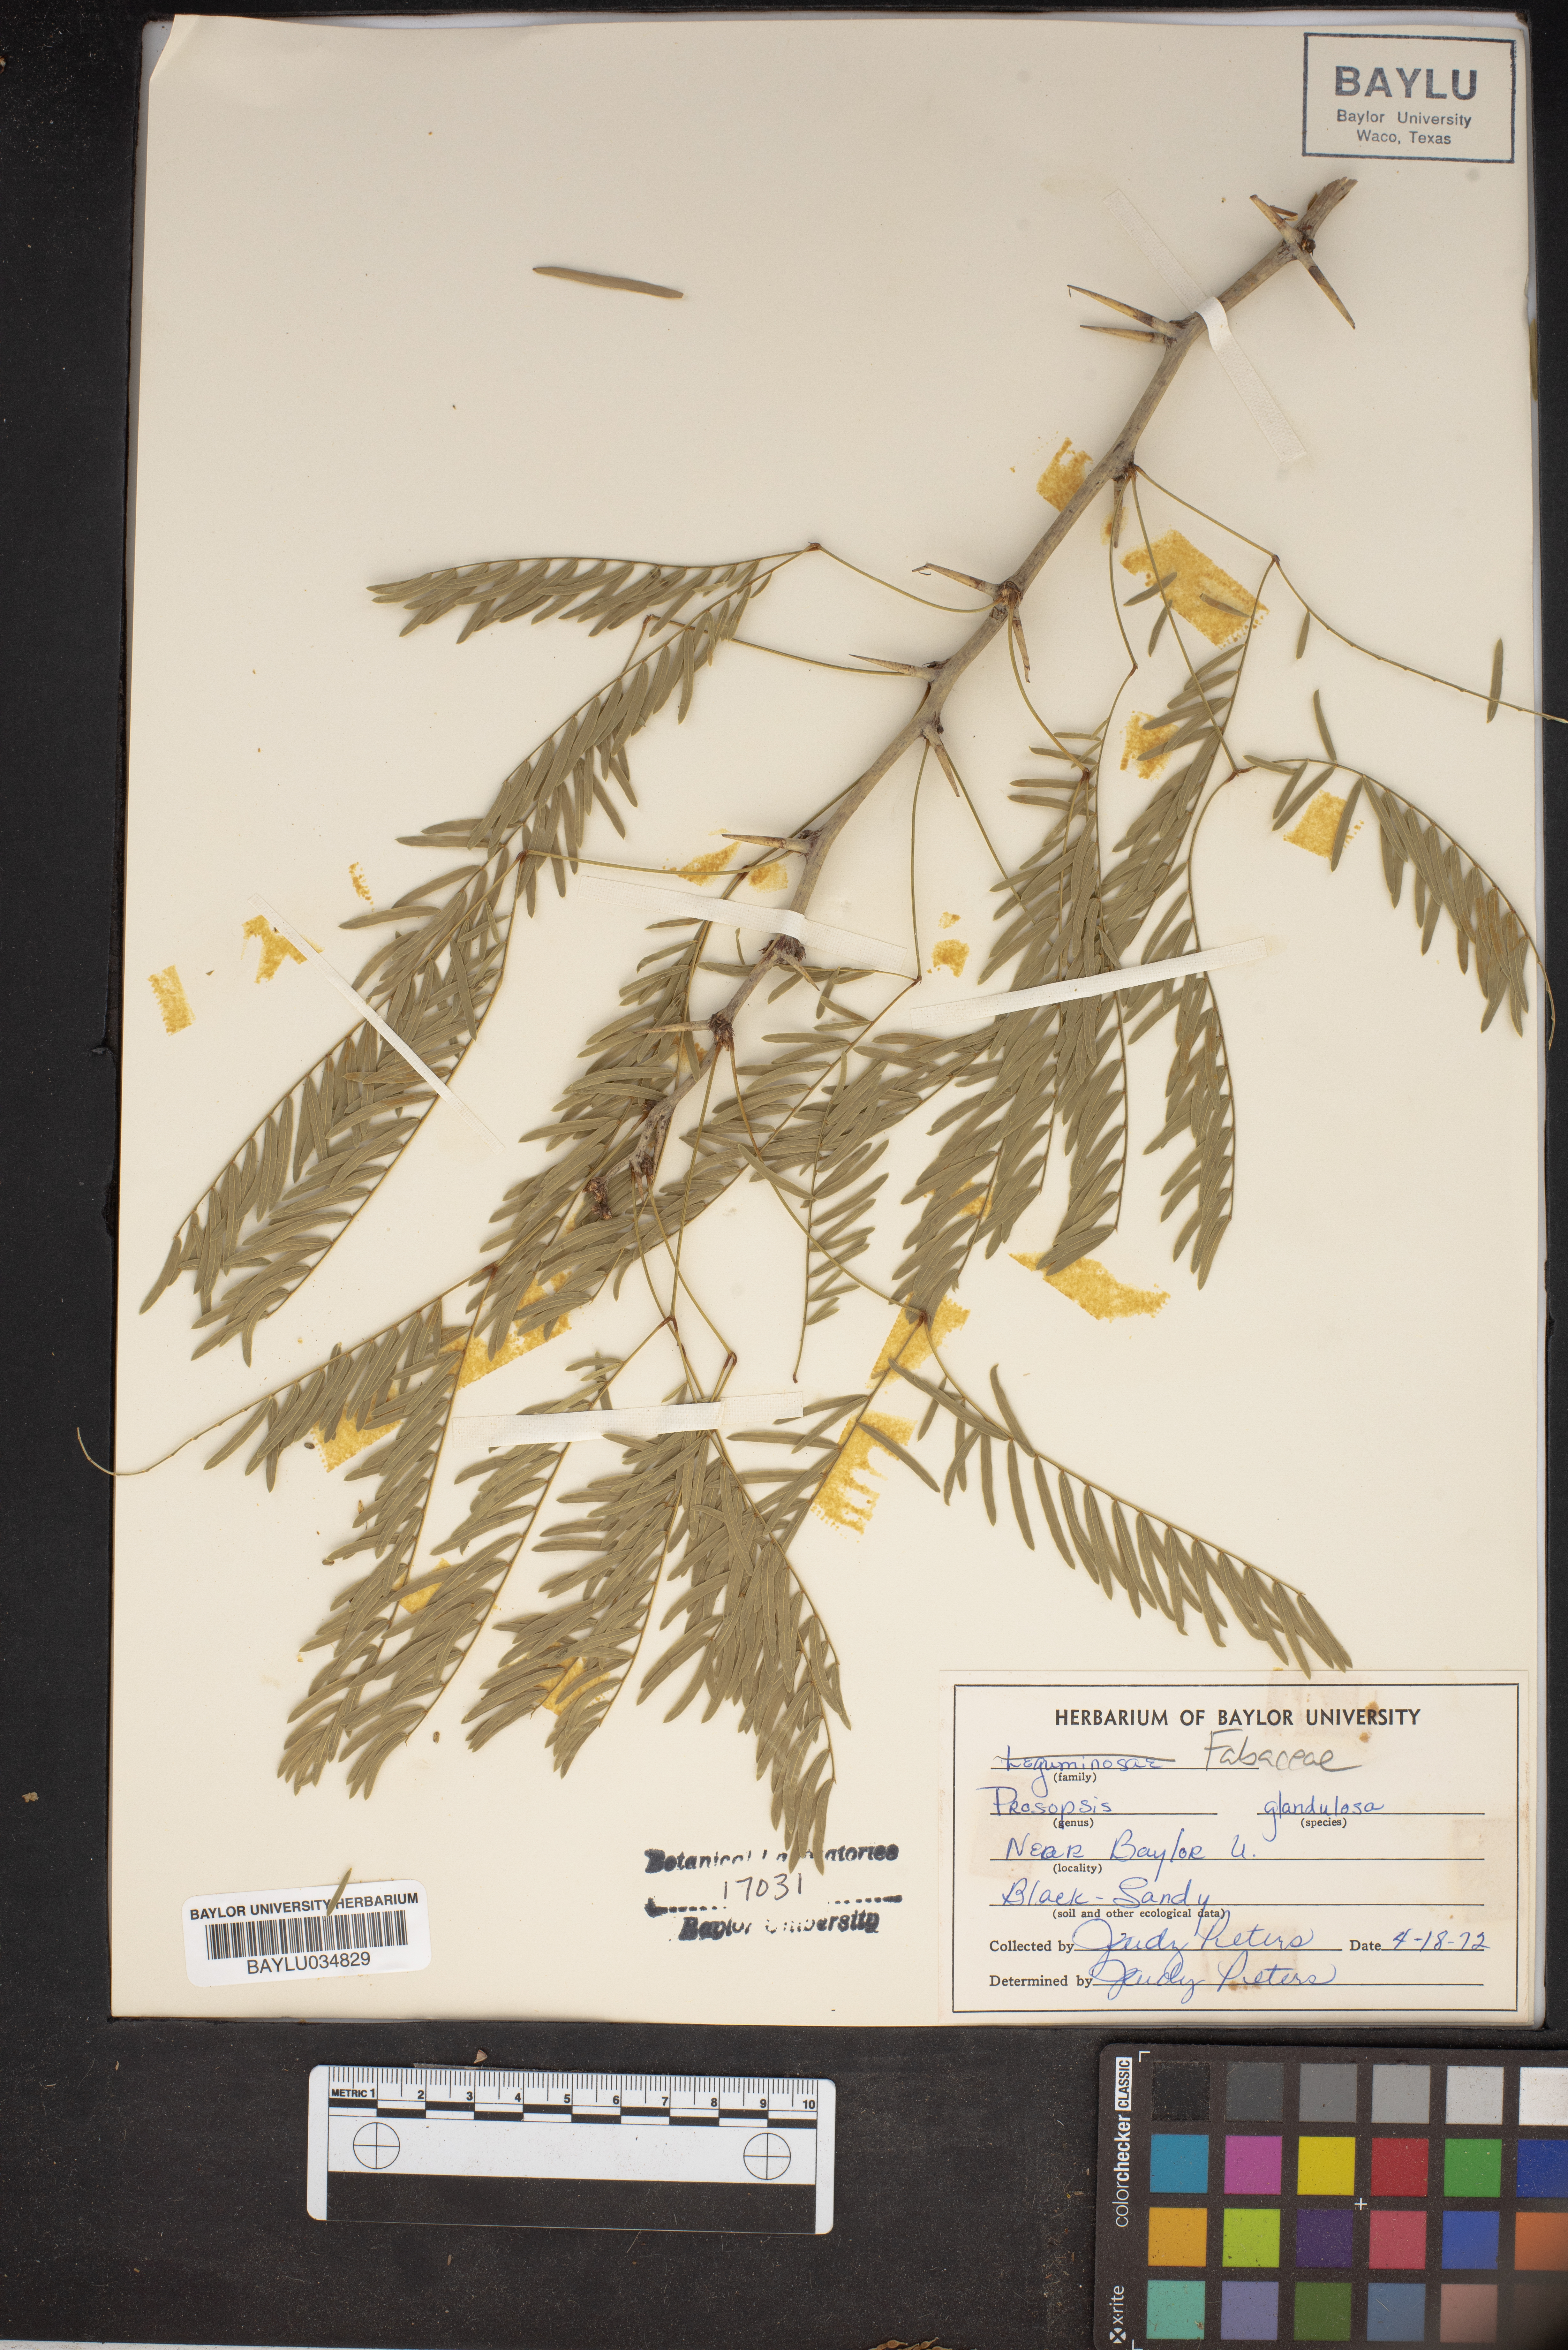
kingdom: Plantae
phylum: Tracheophyta
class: Magnoliopsida
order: Fabales
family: Fabaceae
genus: Prosopis
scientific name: Prosopis glandulosa
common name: Honey mesquite
